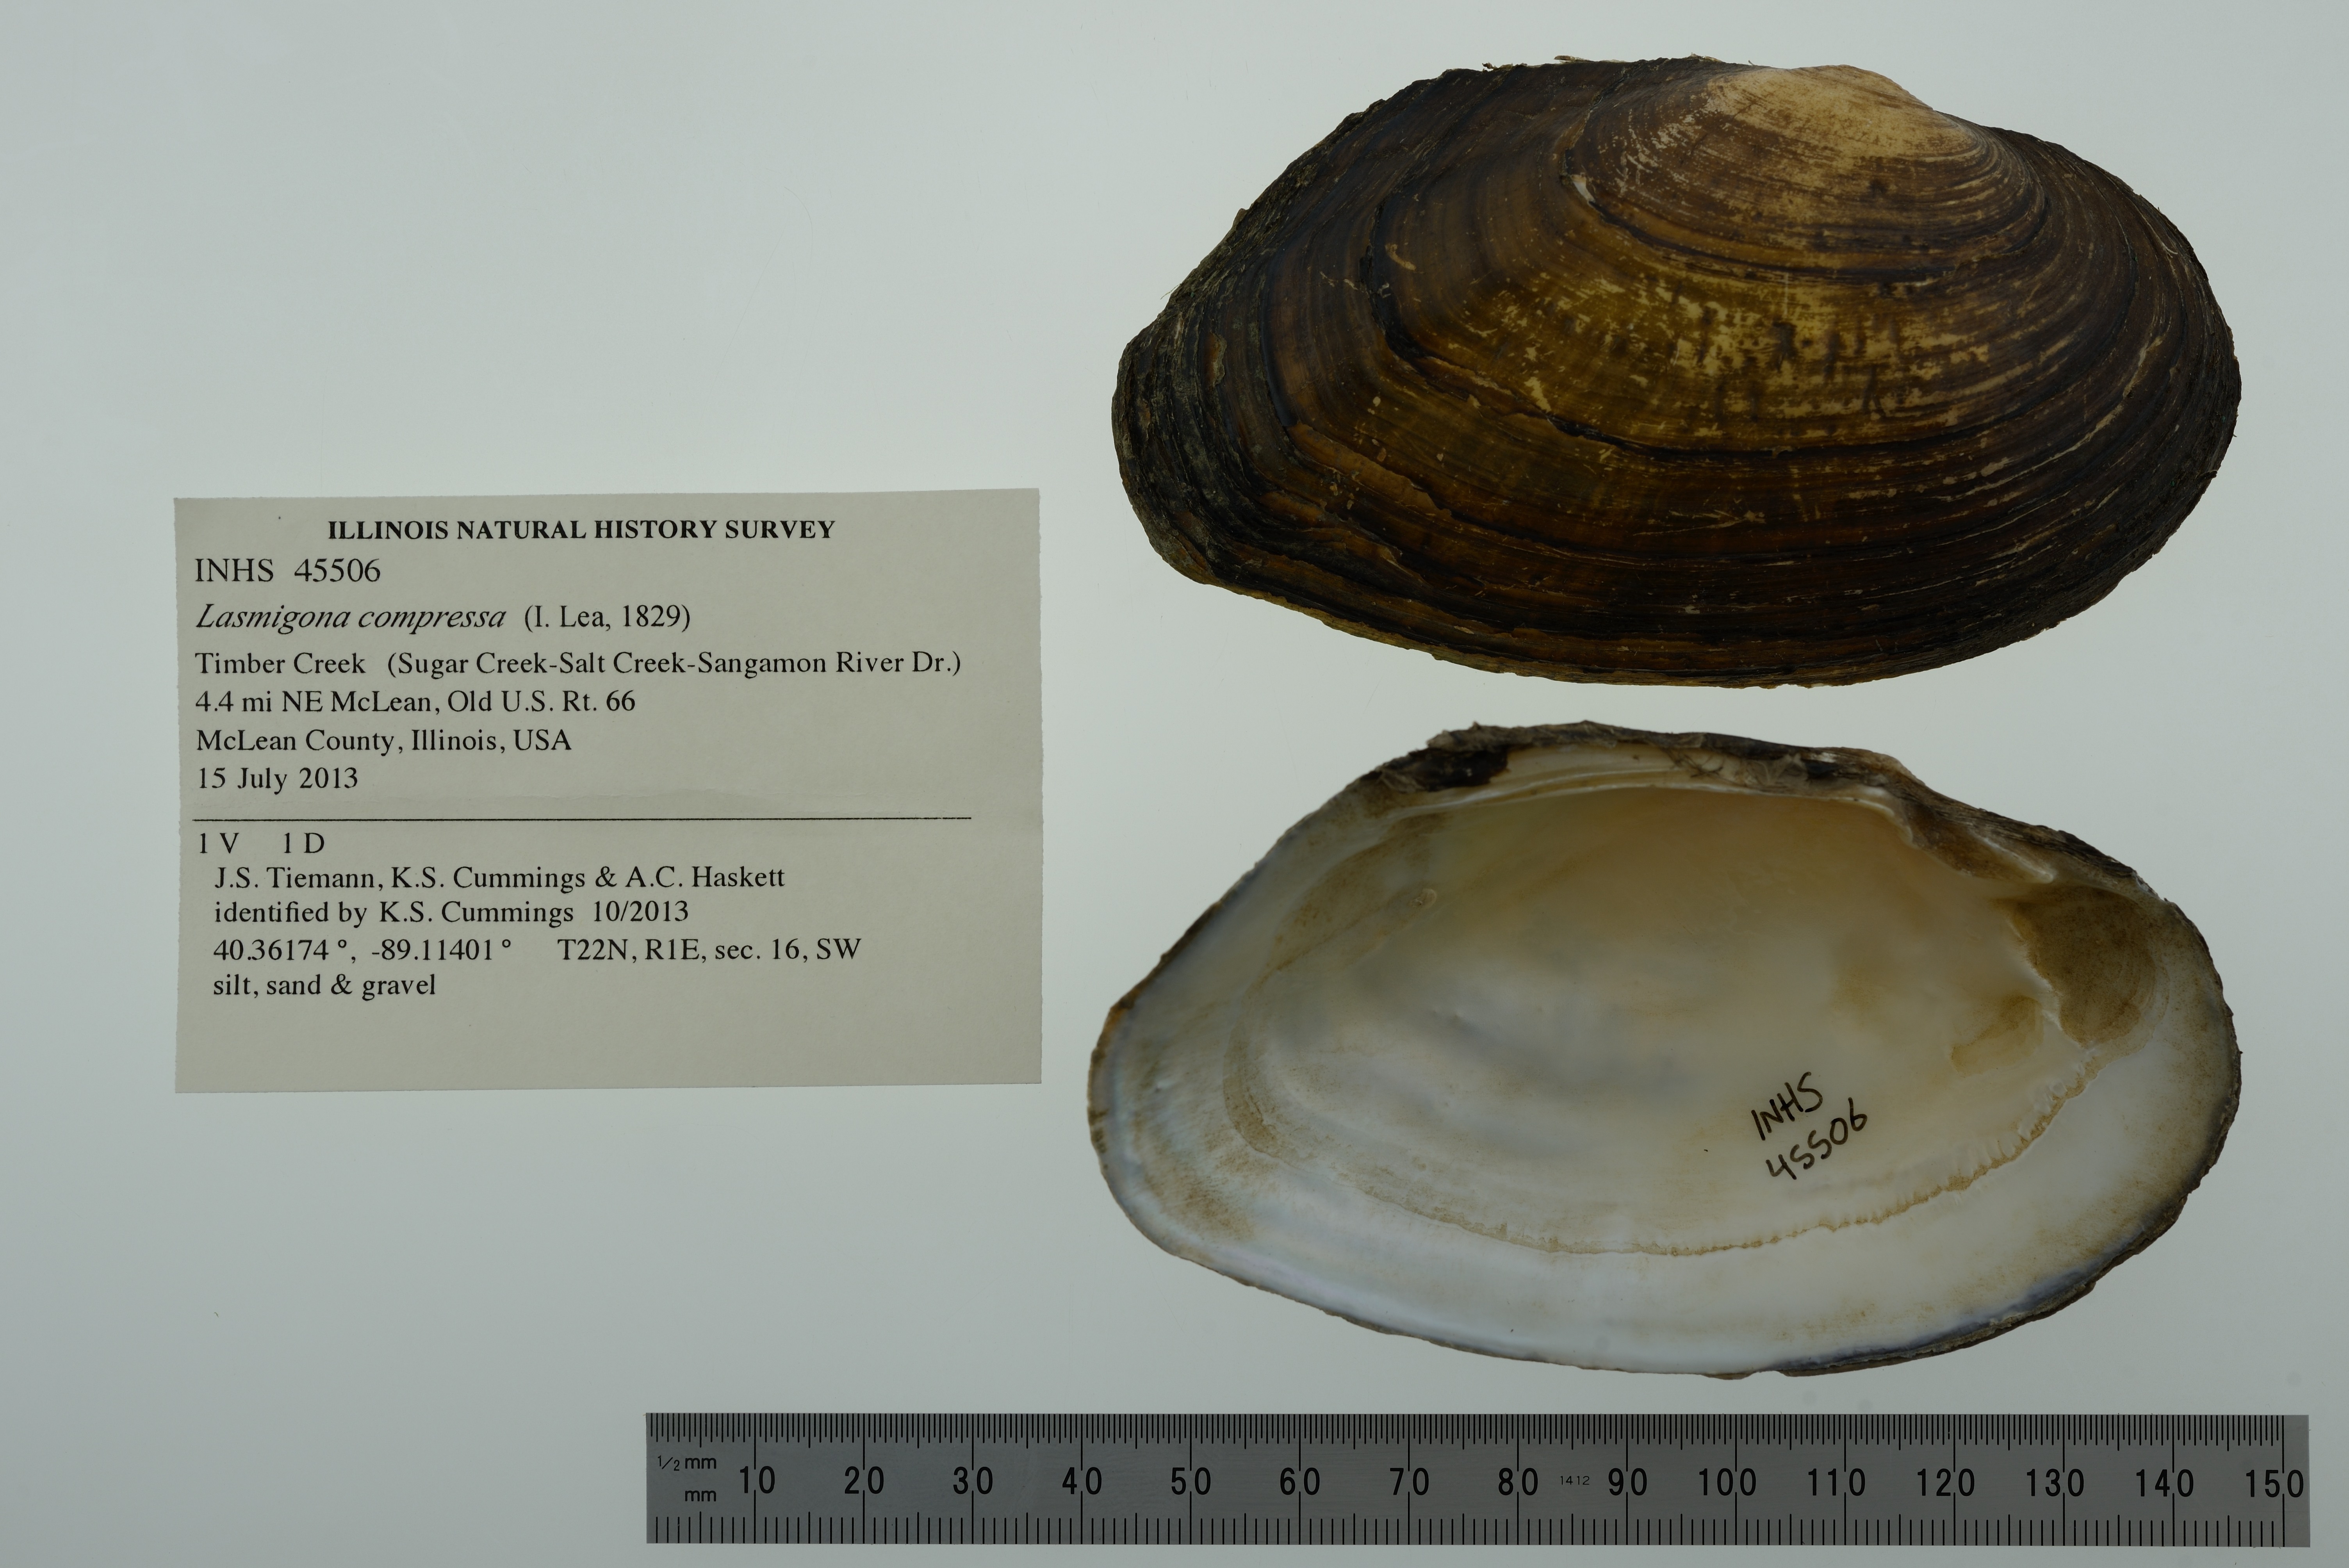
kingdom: Animalia
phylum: Mollusca
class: Bivalvia
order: Unionida
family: Unionidae
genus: Lasmigona
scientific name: Lasmigona compressa
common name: Creek heelsplitter
